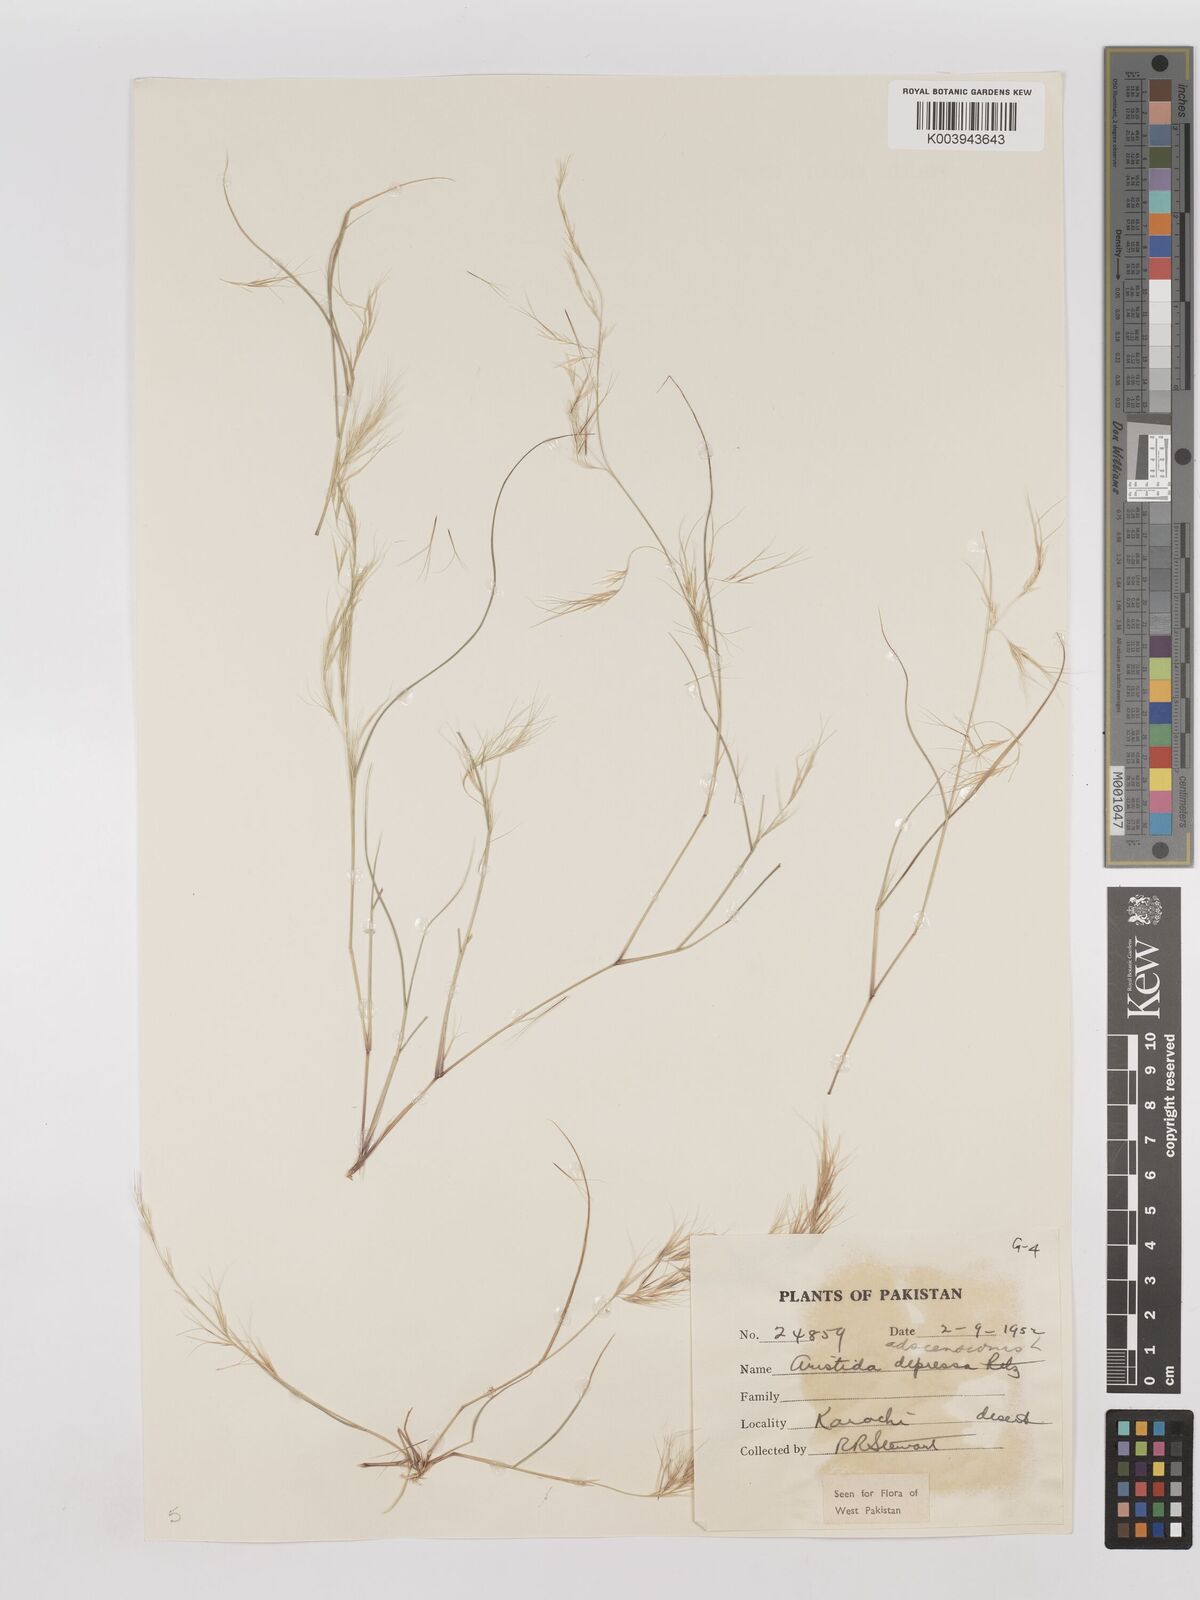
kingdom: Plantae
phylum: Tracheophyta
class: Liliopsida
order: Poales
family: Poaceae
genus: Aristida
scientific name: Aristida adscensionis
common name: Sixweeks threeawn
